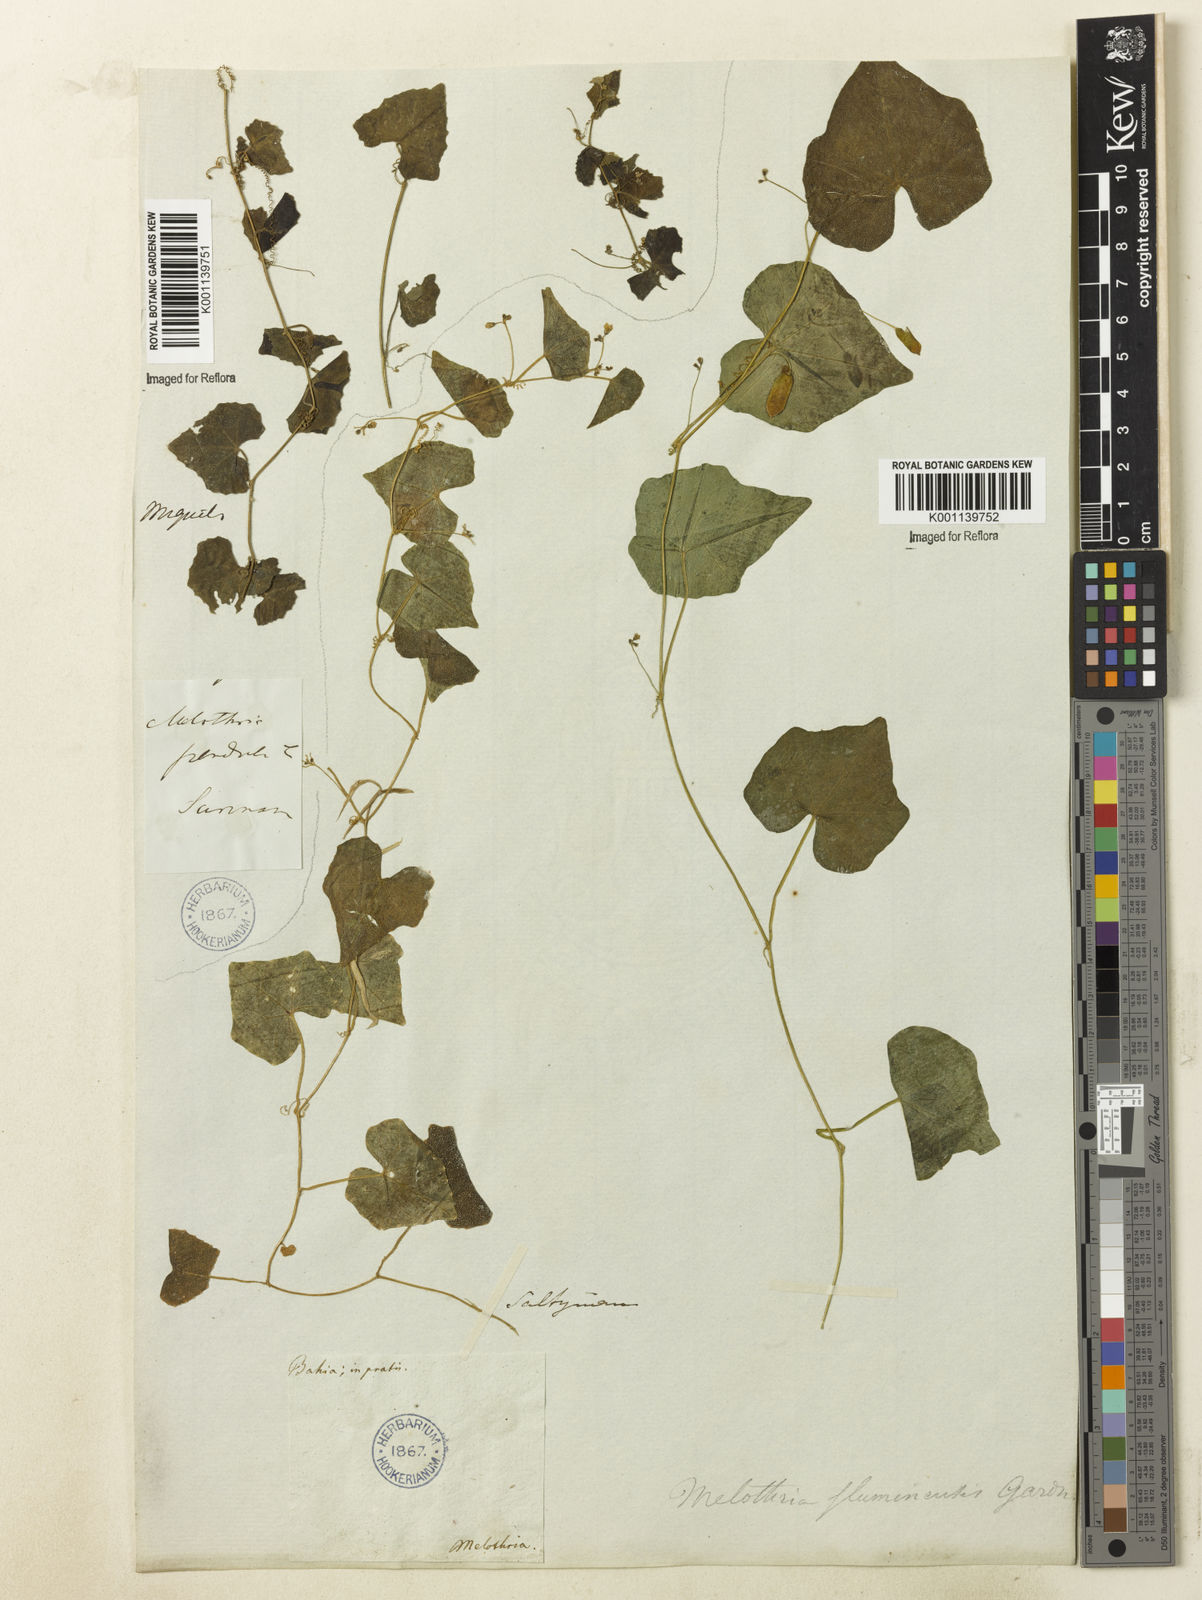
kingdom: Plantae
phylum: Tracheophyta
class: Magnoliopsida
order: Cucurbitales
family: Cucurbitaceae
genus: Melothria
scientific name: Melothria pendula
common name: Creeping-cucumber
